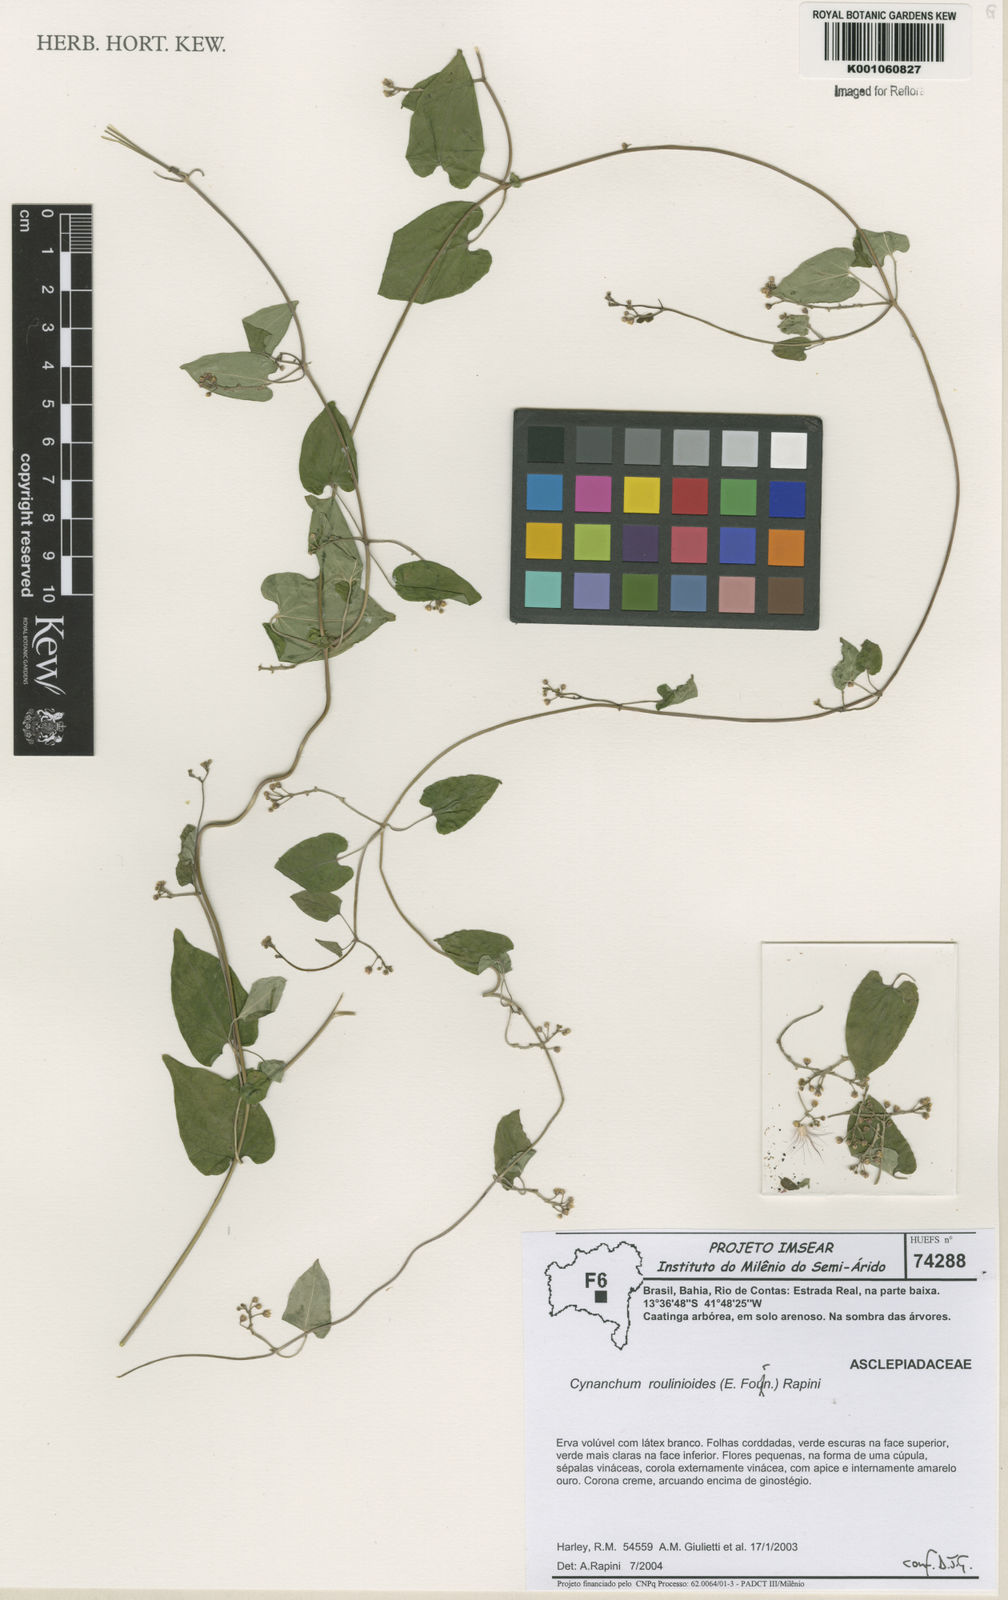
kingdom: Plantae
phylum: Tracheophyta
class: Magnoliopsida
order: Gentianales
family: Apocynaceae
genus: Cynanchum
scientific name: Cynanchum roulinioides
